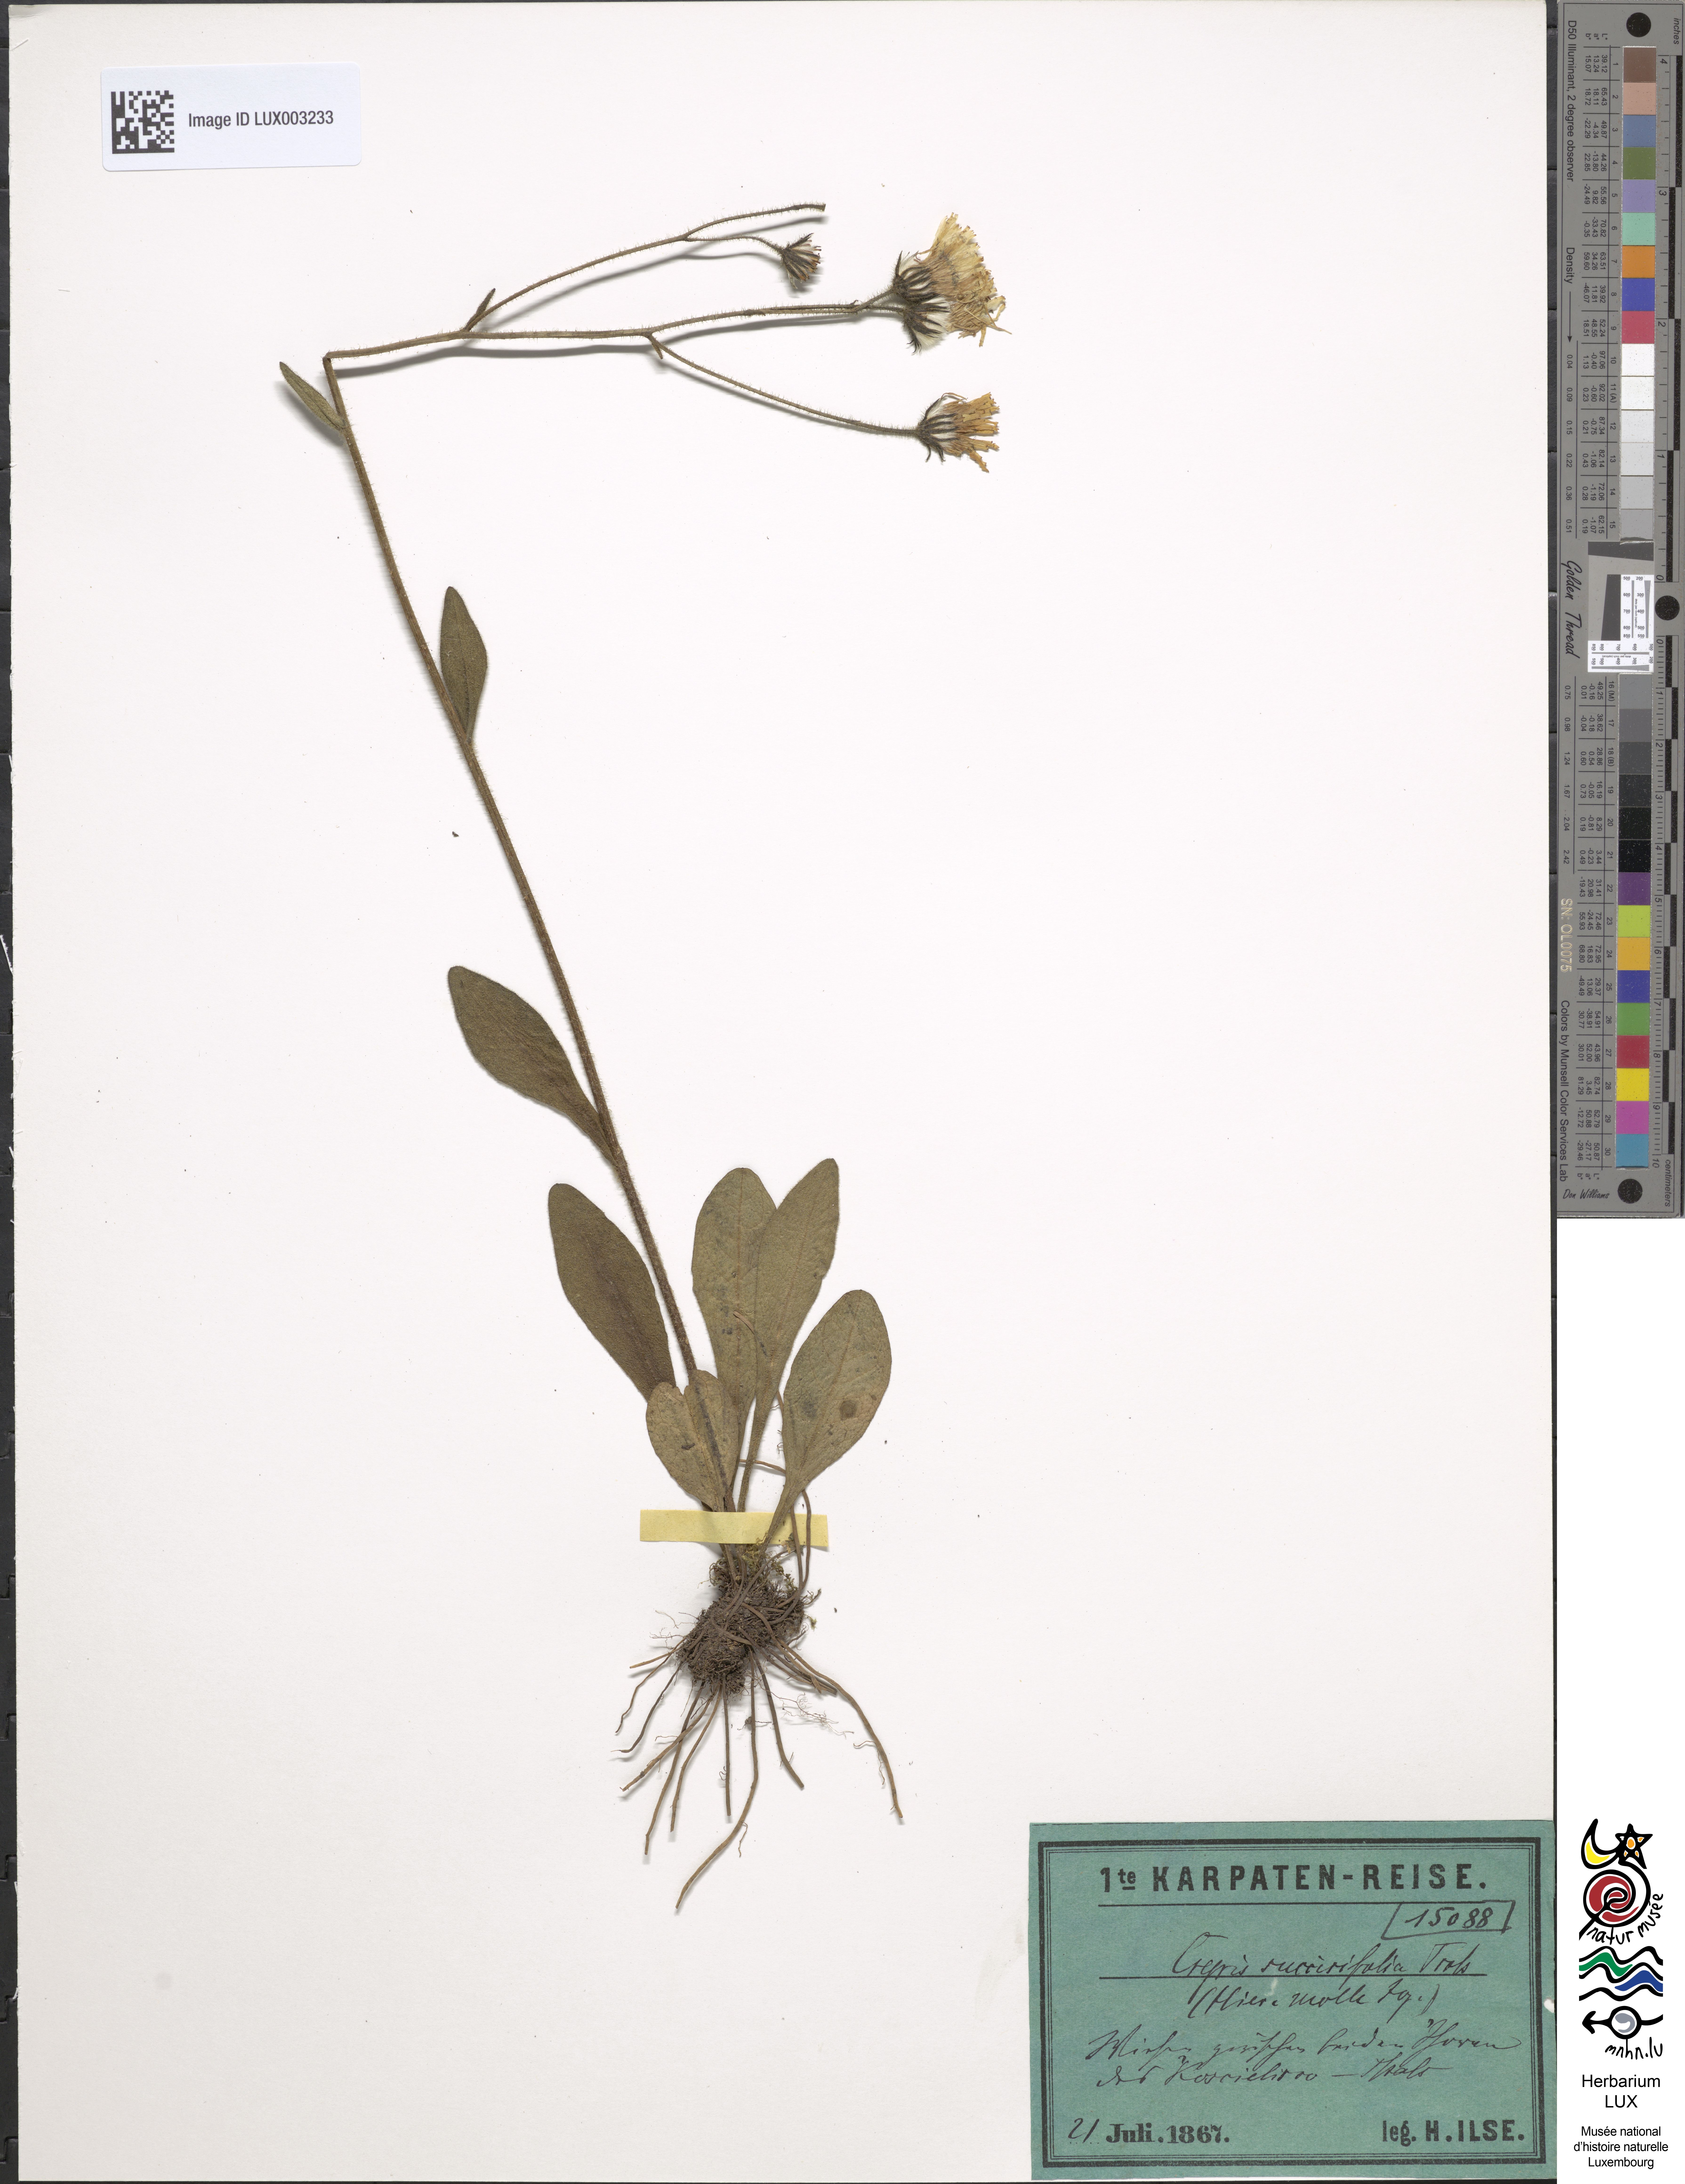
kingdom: Plantae
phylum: Tracheophyta
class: Magnoliopsida
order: Asterales
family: Asteraceae
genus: Crepis
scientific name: Crepis mollis
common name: Northern hawk's-beard
